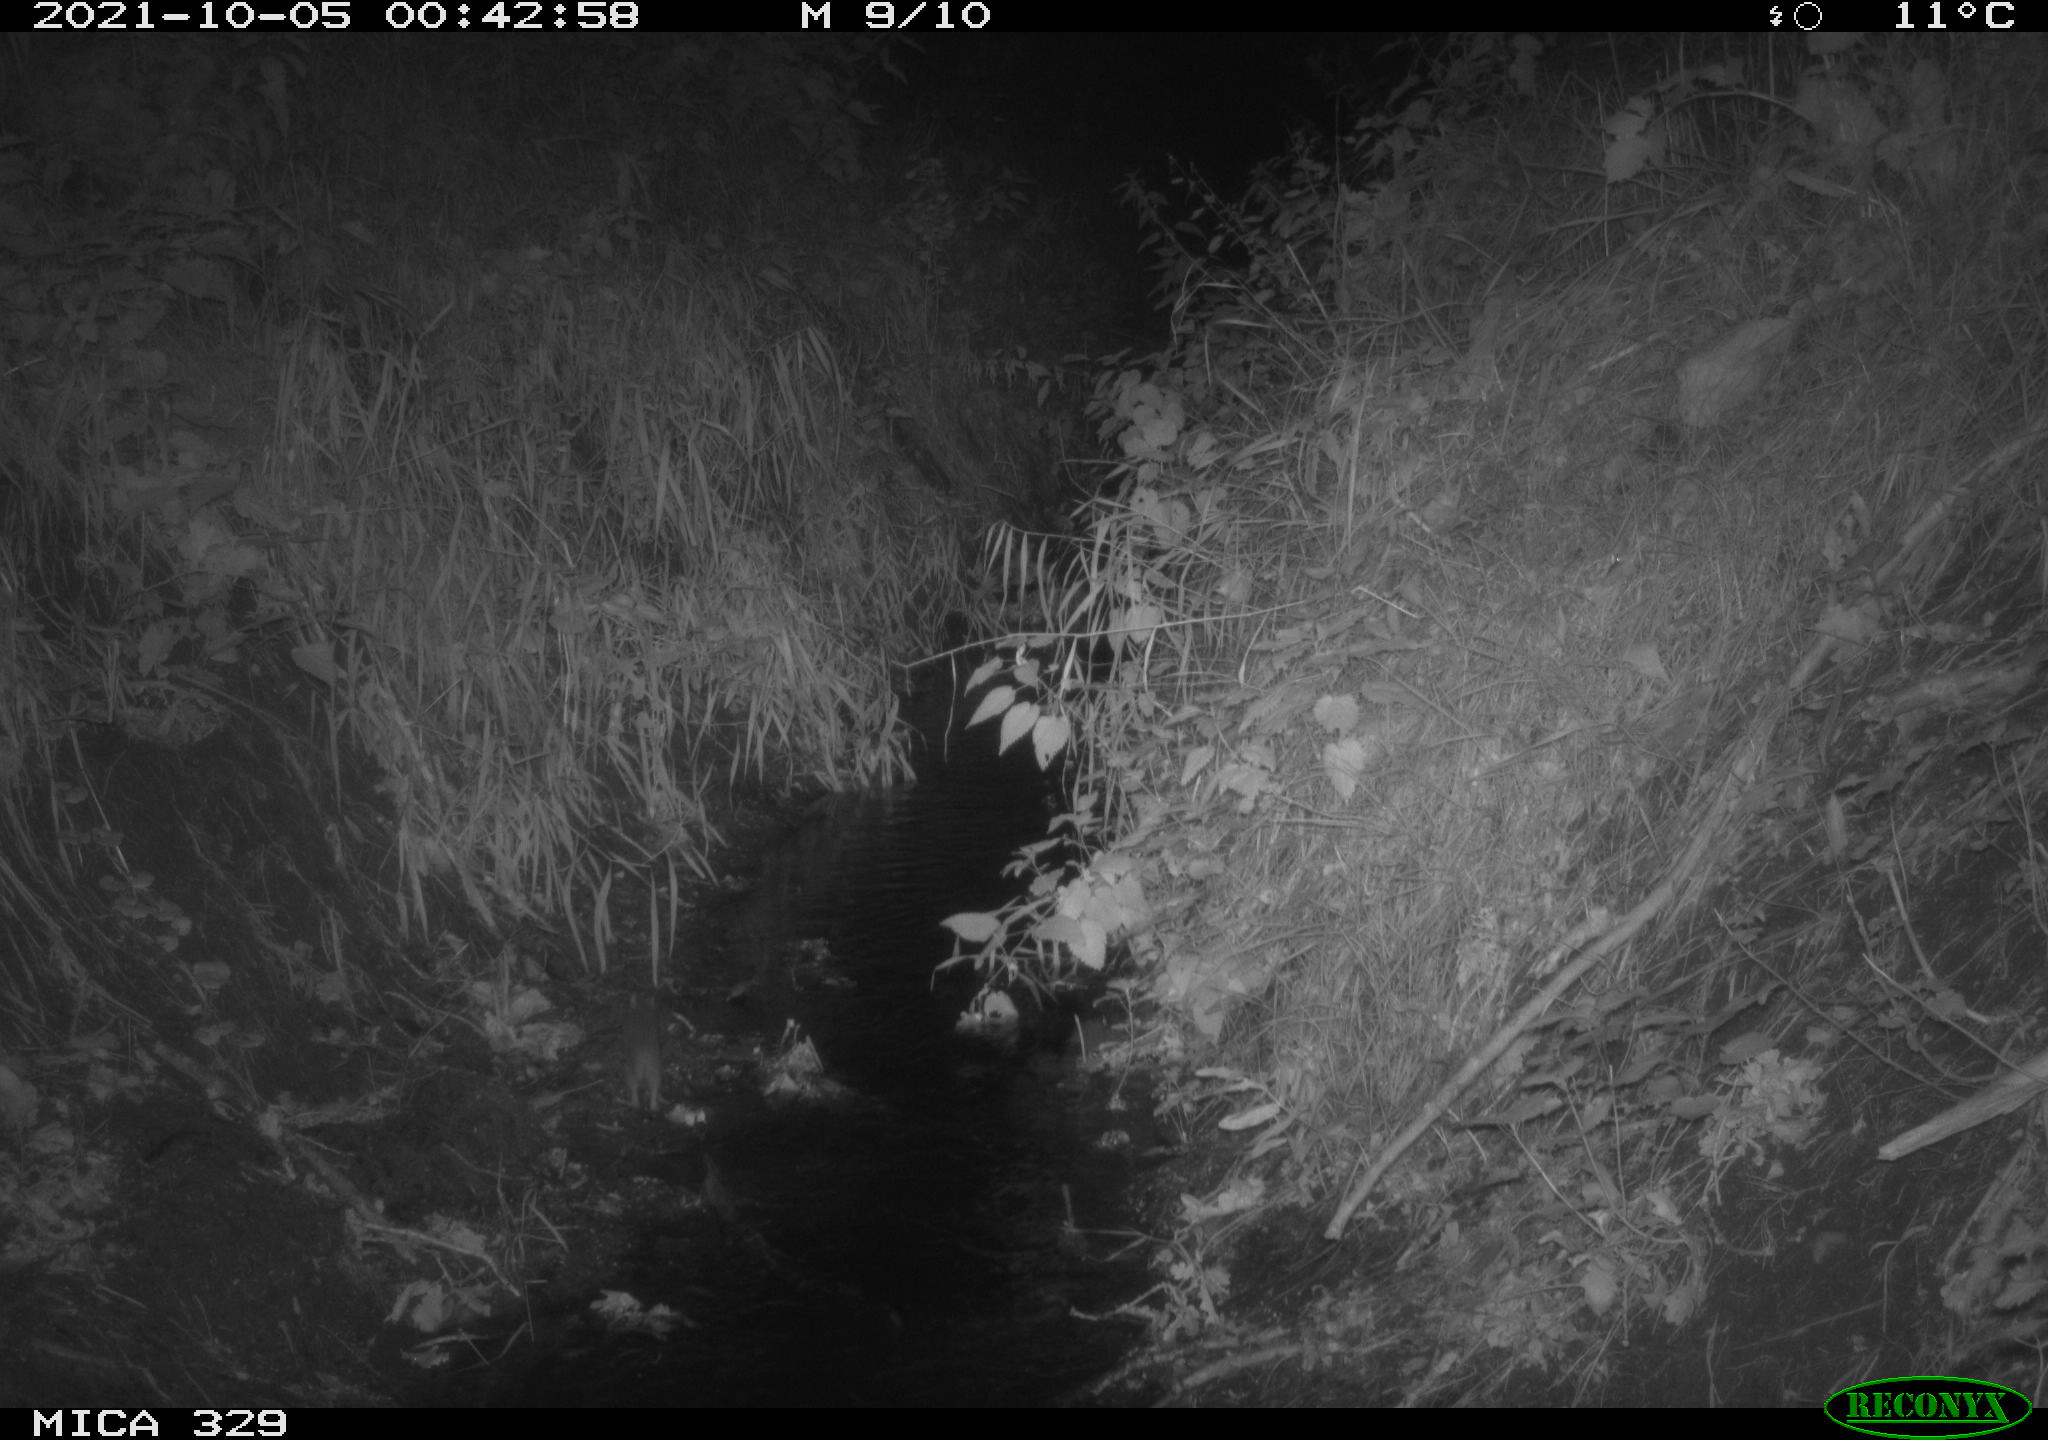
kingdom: Animalia
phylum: Chordata
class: Mammalia
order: Rodentia
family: Muridae
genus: Rattus
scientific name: Rattus norvegicus
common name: Brown rat
